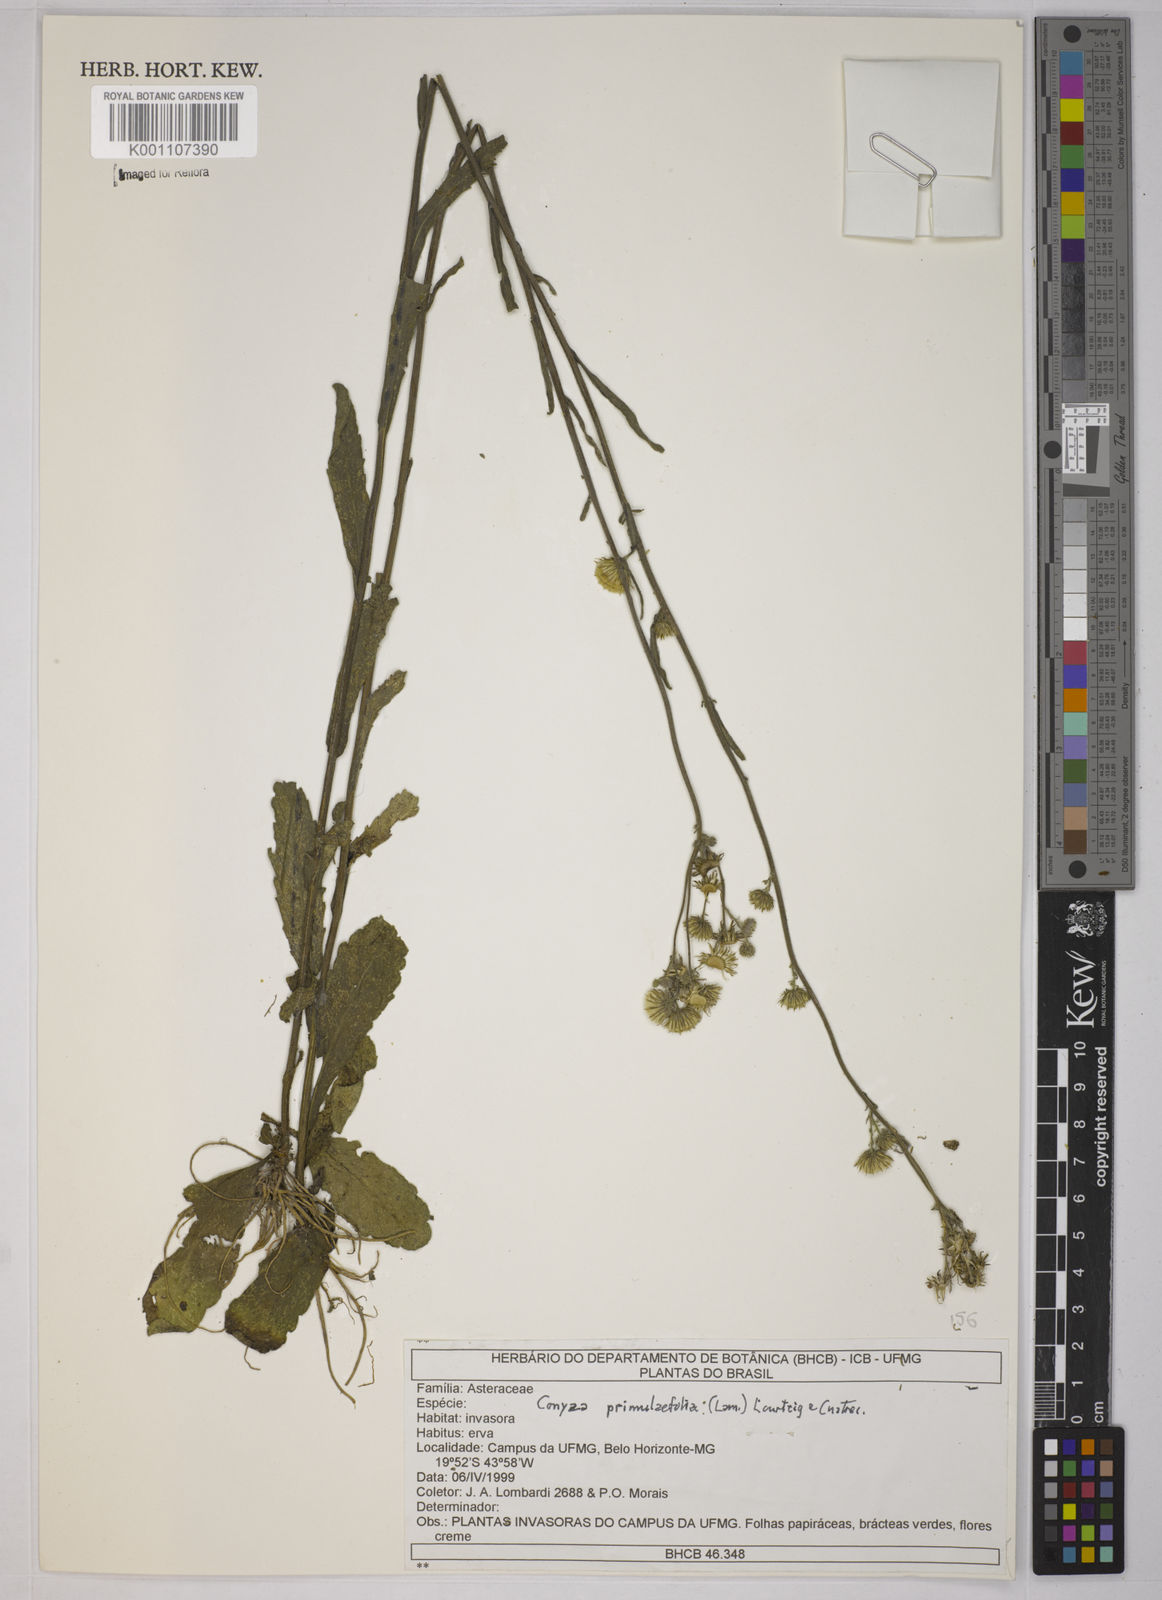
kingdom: Plantae
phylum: Tracheophyta
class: Magnoliopsida
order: Asterales
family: Asteraceae
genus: Conyza
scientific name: Conyza
